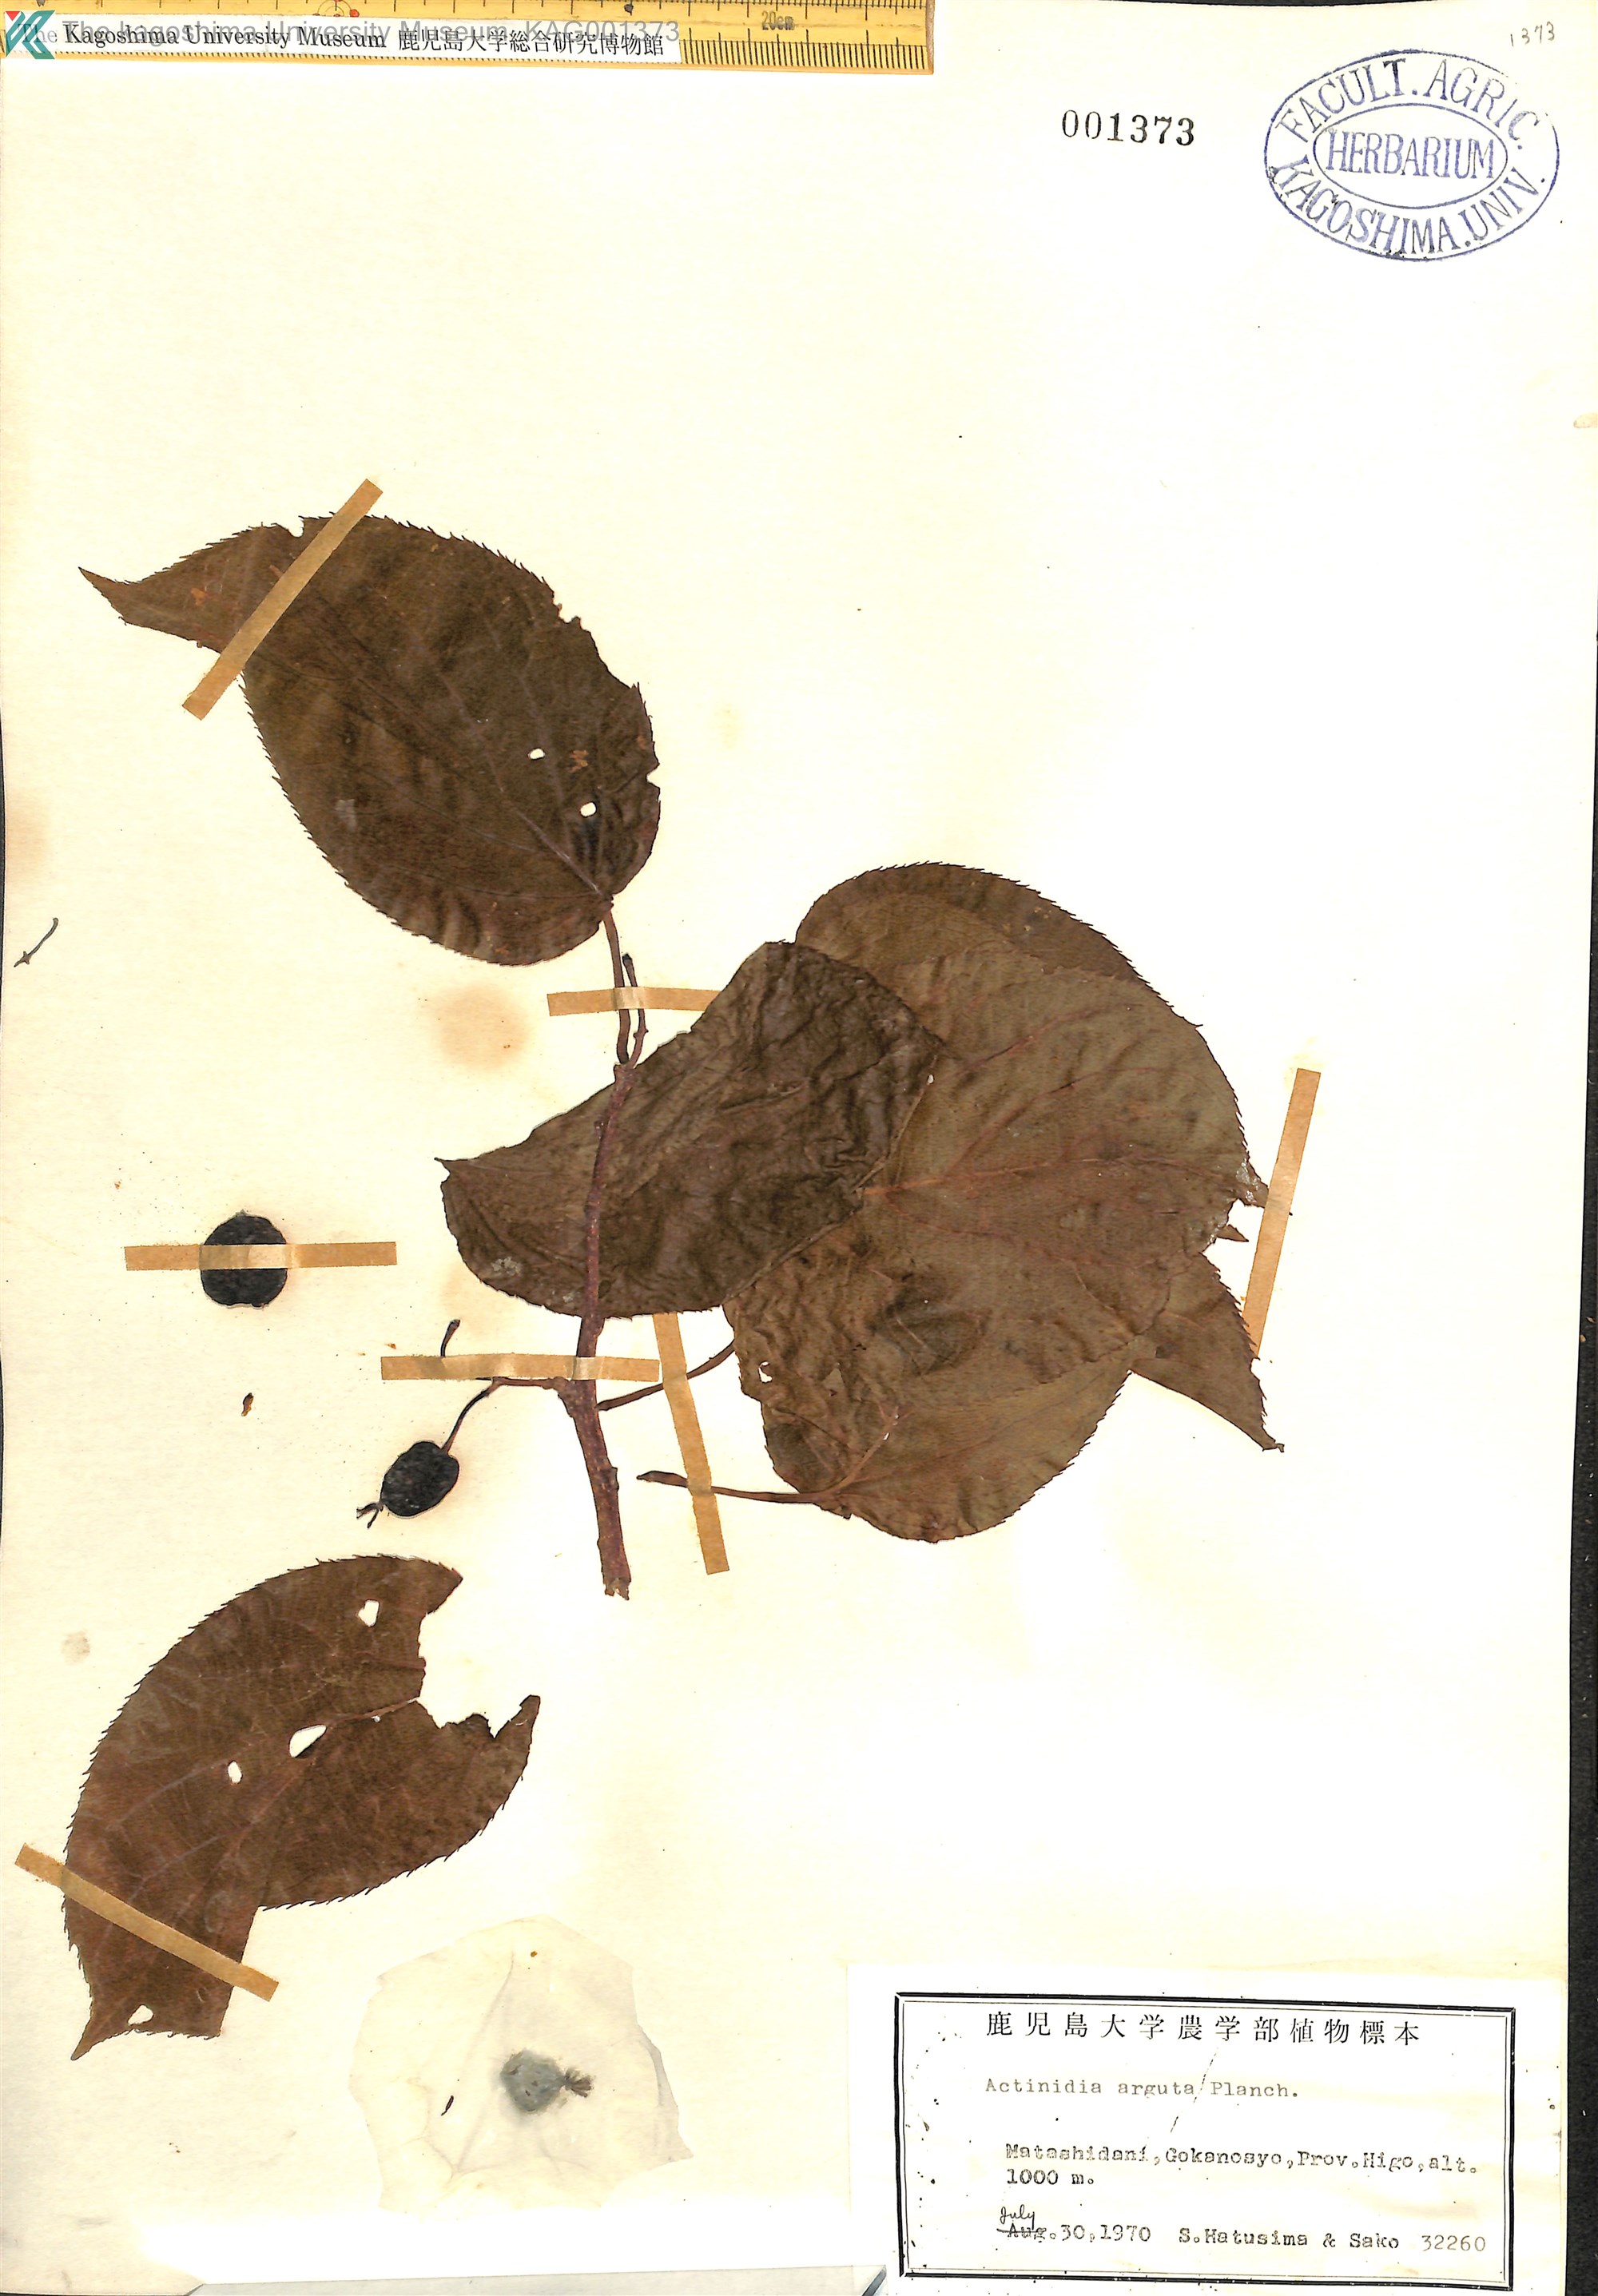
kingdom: Plantae
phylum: Tracheophyta
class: Magnoliopsida
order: Ericales
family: Actinidiaceae
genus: Actinidia
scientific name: Actinidia arguta
